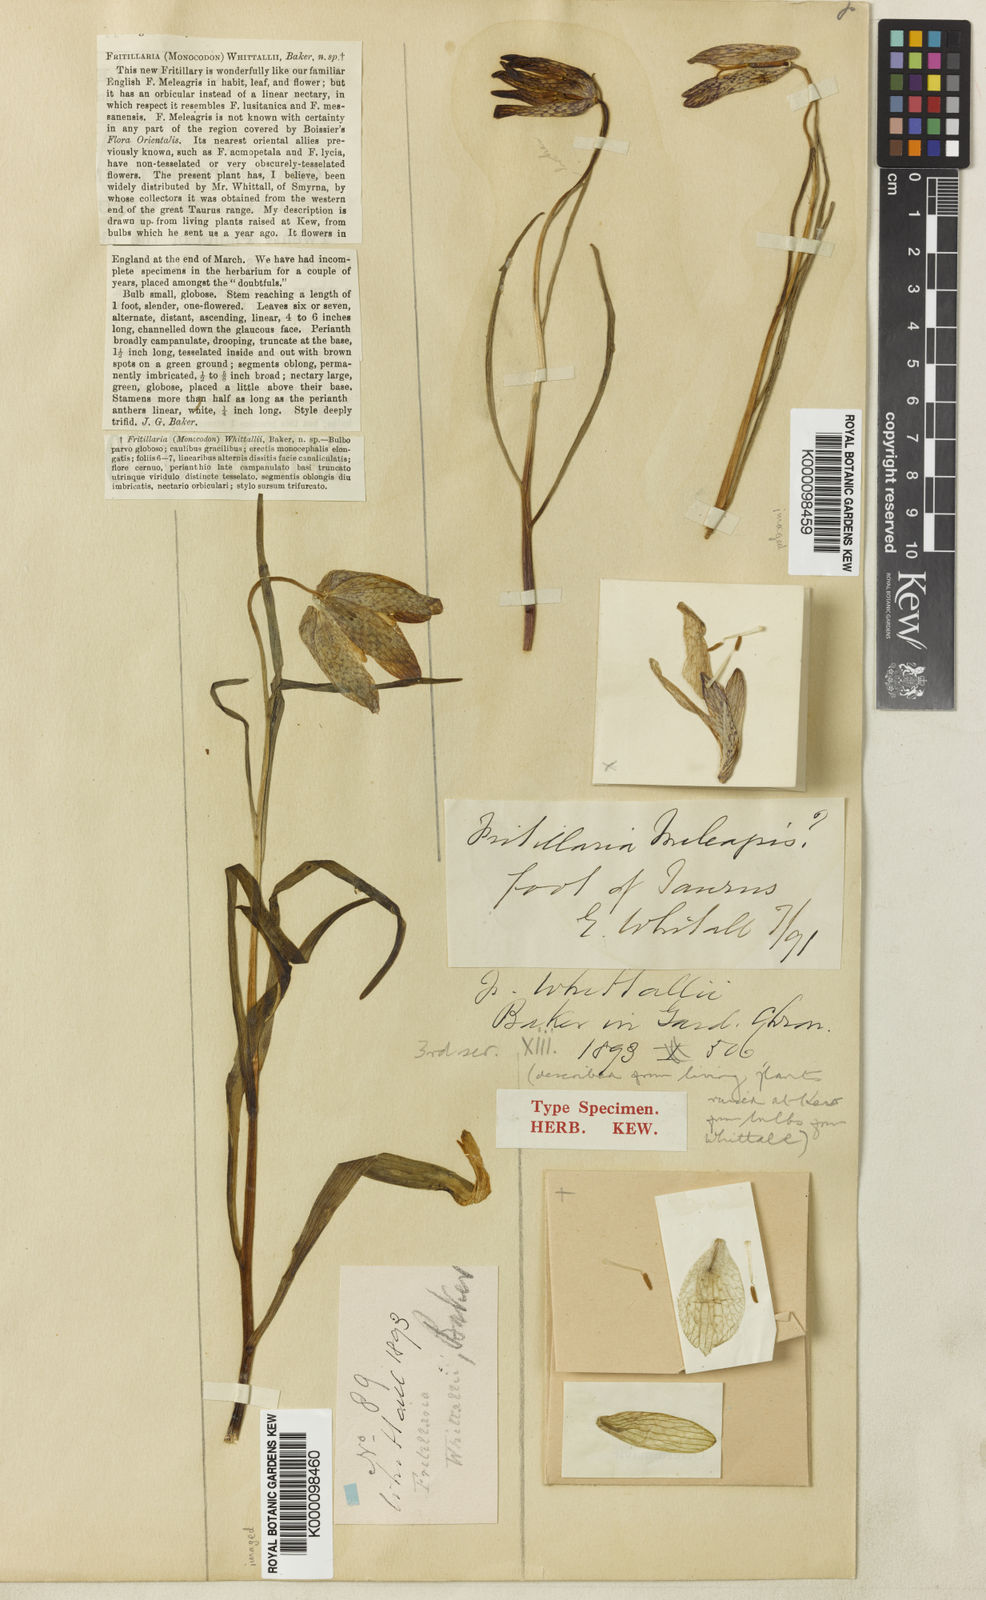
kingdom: Plantae
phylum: Tracheophyta
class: Liliopsida
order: Liliales
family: Liliaceae
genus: Fritillaria
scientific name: Fritillaria whittallii
